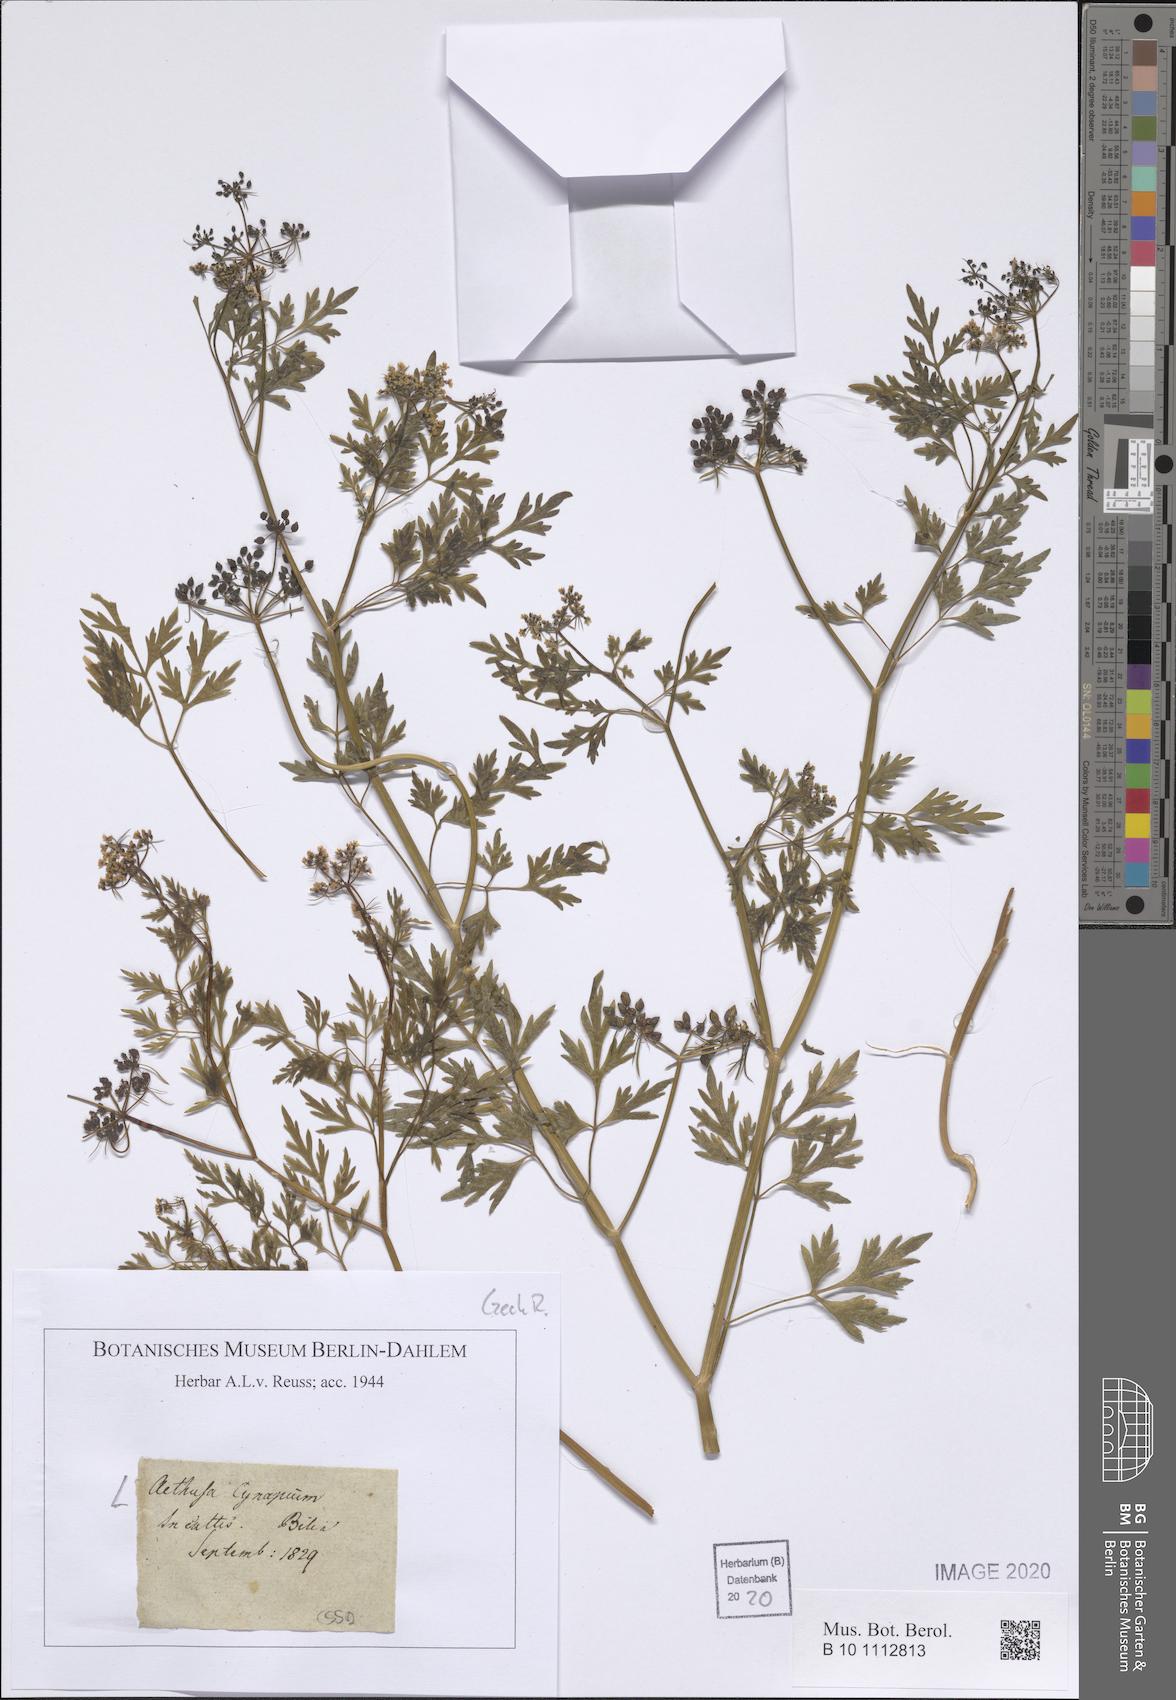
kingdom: Plantae
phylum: Tracheophyta
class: Magnoliopsida
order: Apiales
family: Apiaceae
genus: Aethusa
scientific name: Aethusa cynapium
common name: Fool's parsley
